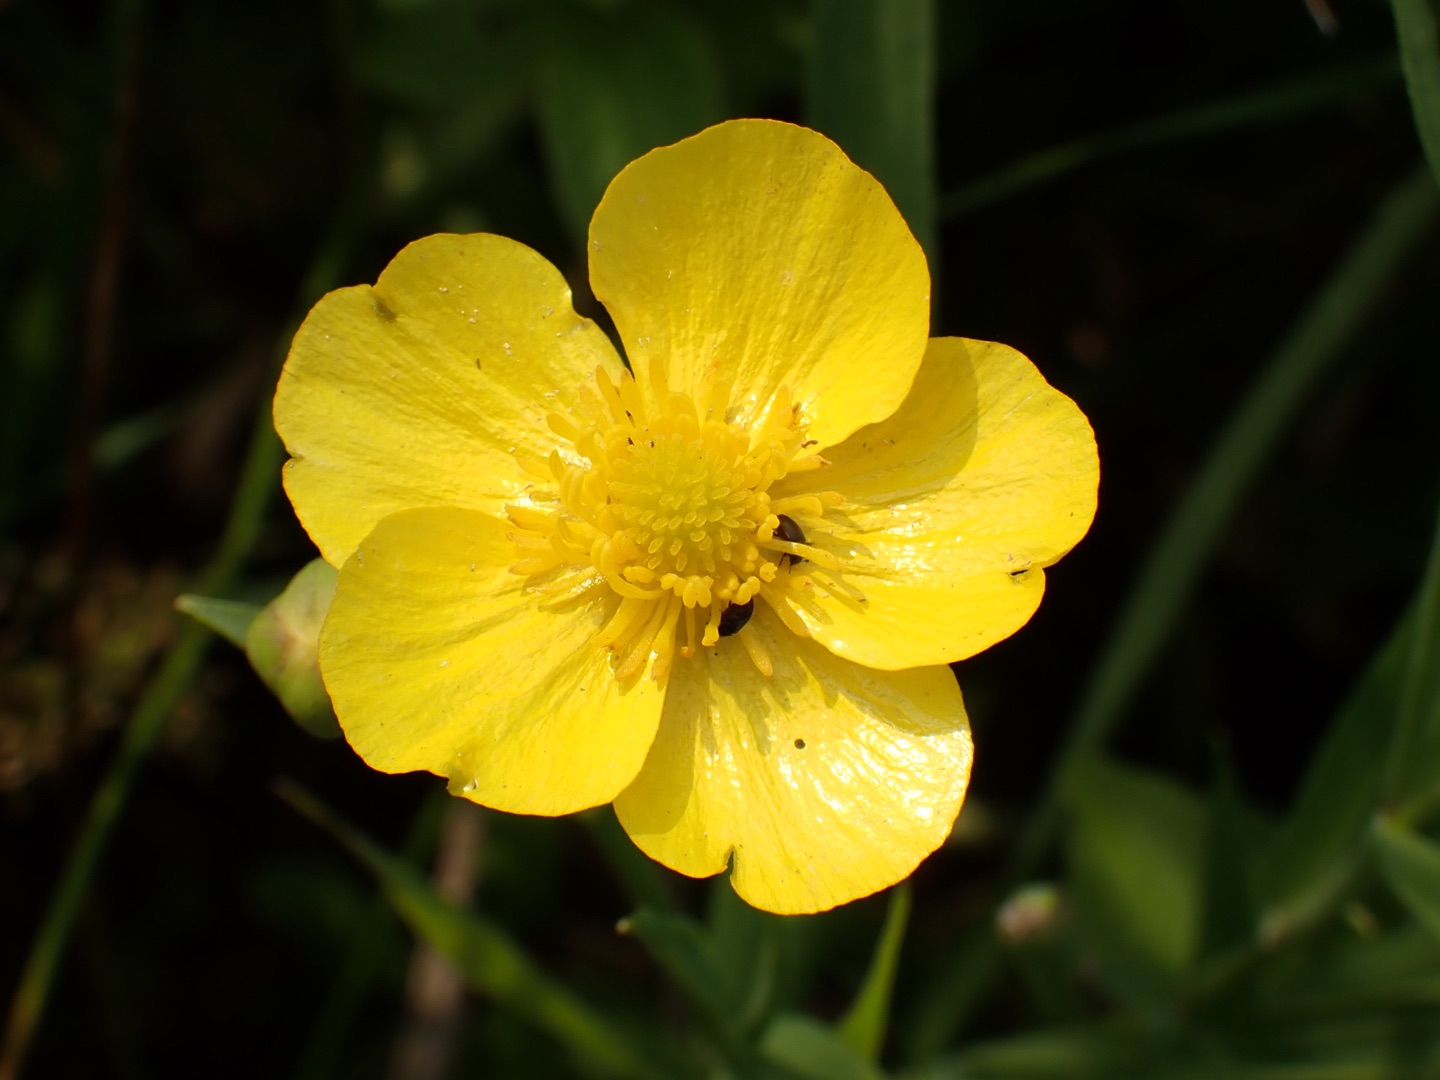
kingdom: Plantae
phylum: Tracheophyta
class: Magnoliopsida
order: Ranunculales
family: Ranunculaceae
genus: Ranunculus
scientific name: Ranunculus lingua
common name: Langbladet ranunkel
